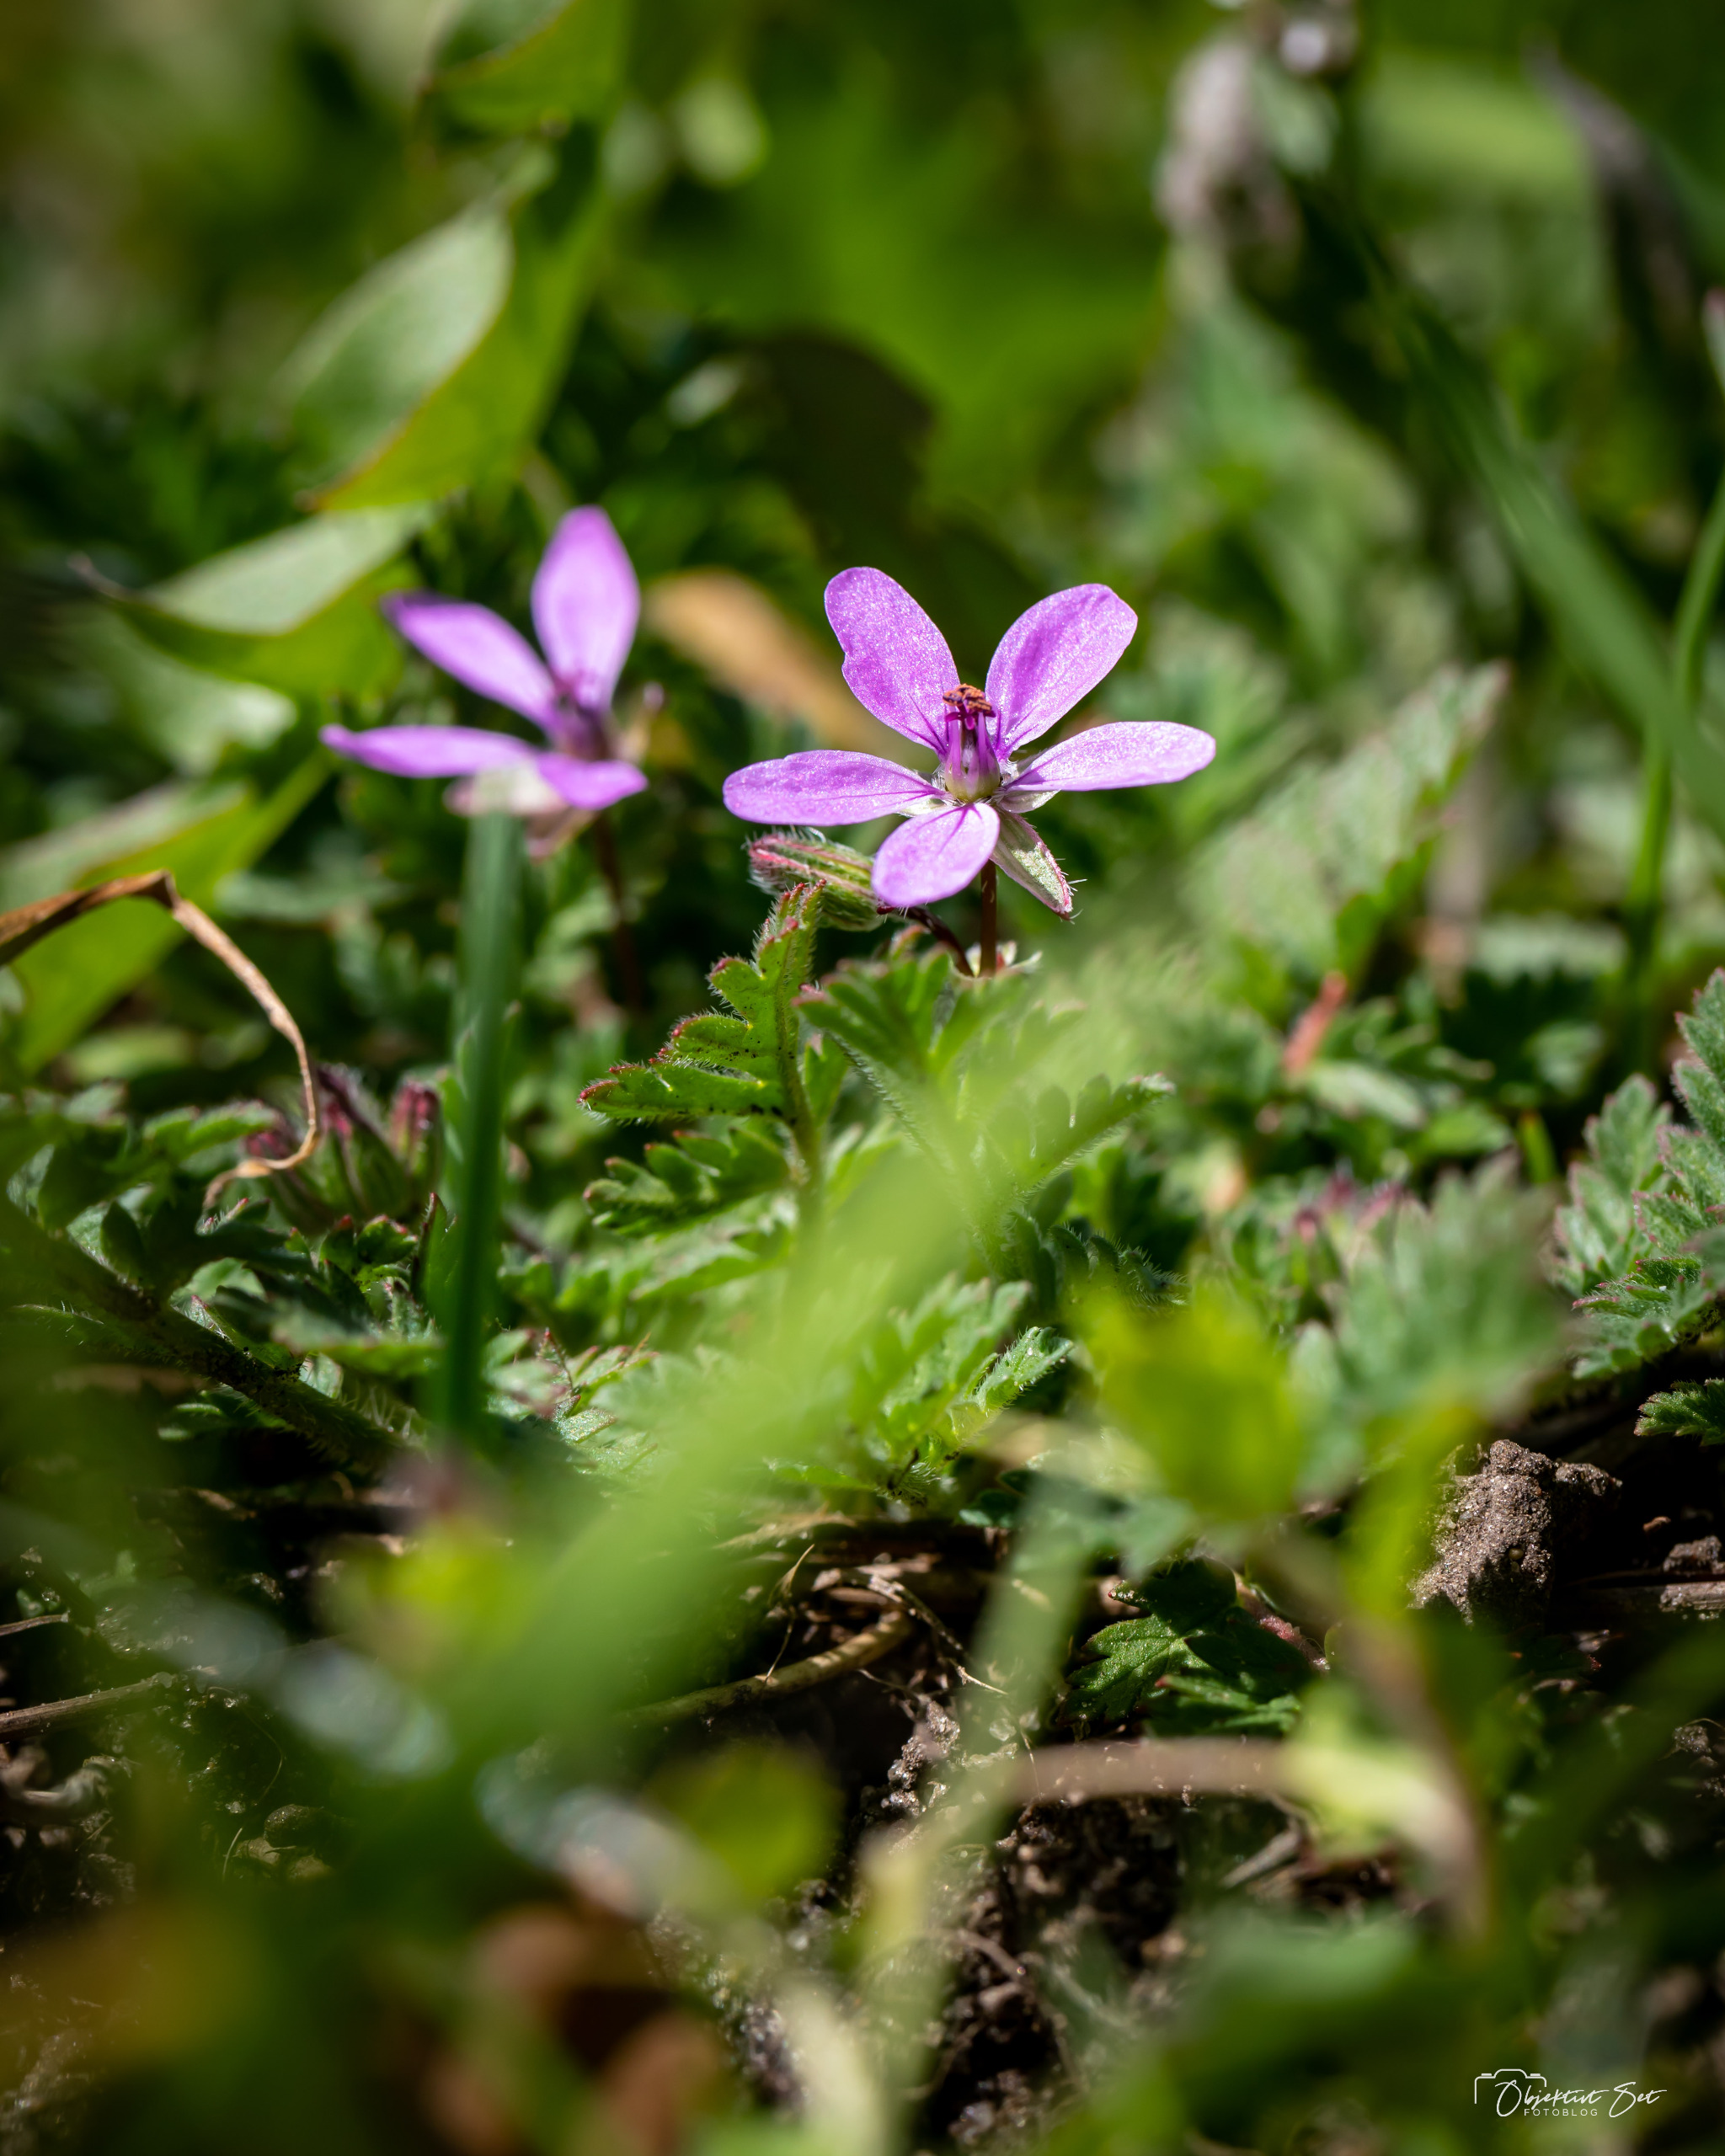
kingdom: Plantae
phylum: Tracheophyta
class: Magnoliopsida
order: Geraniales
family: Geraniaceae
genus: Erodium
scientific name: Erodium cicutarium
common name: Hejrenæb
